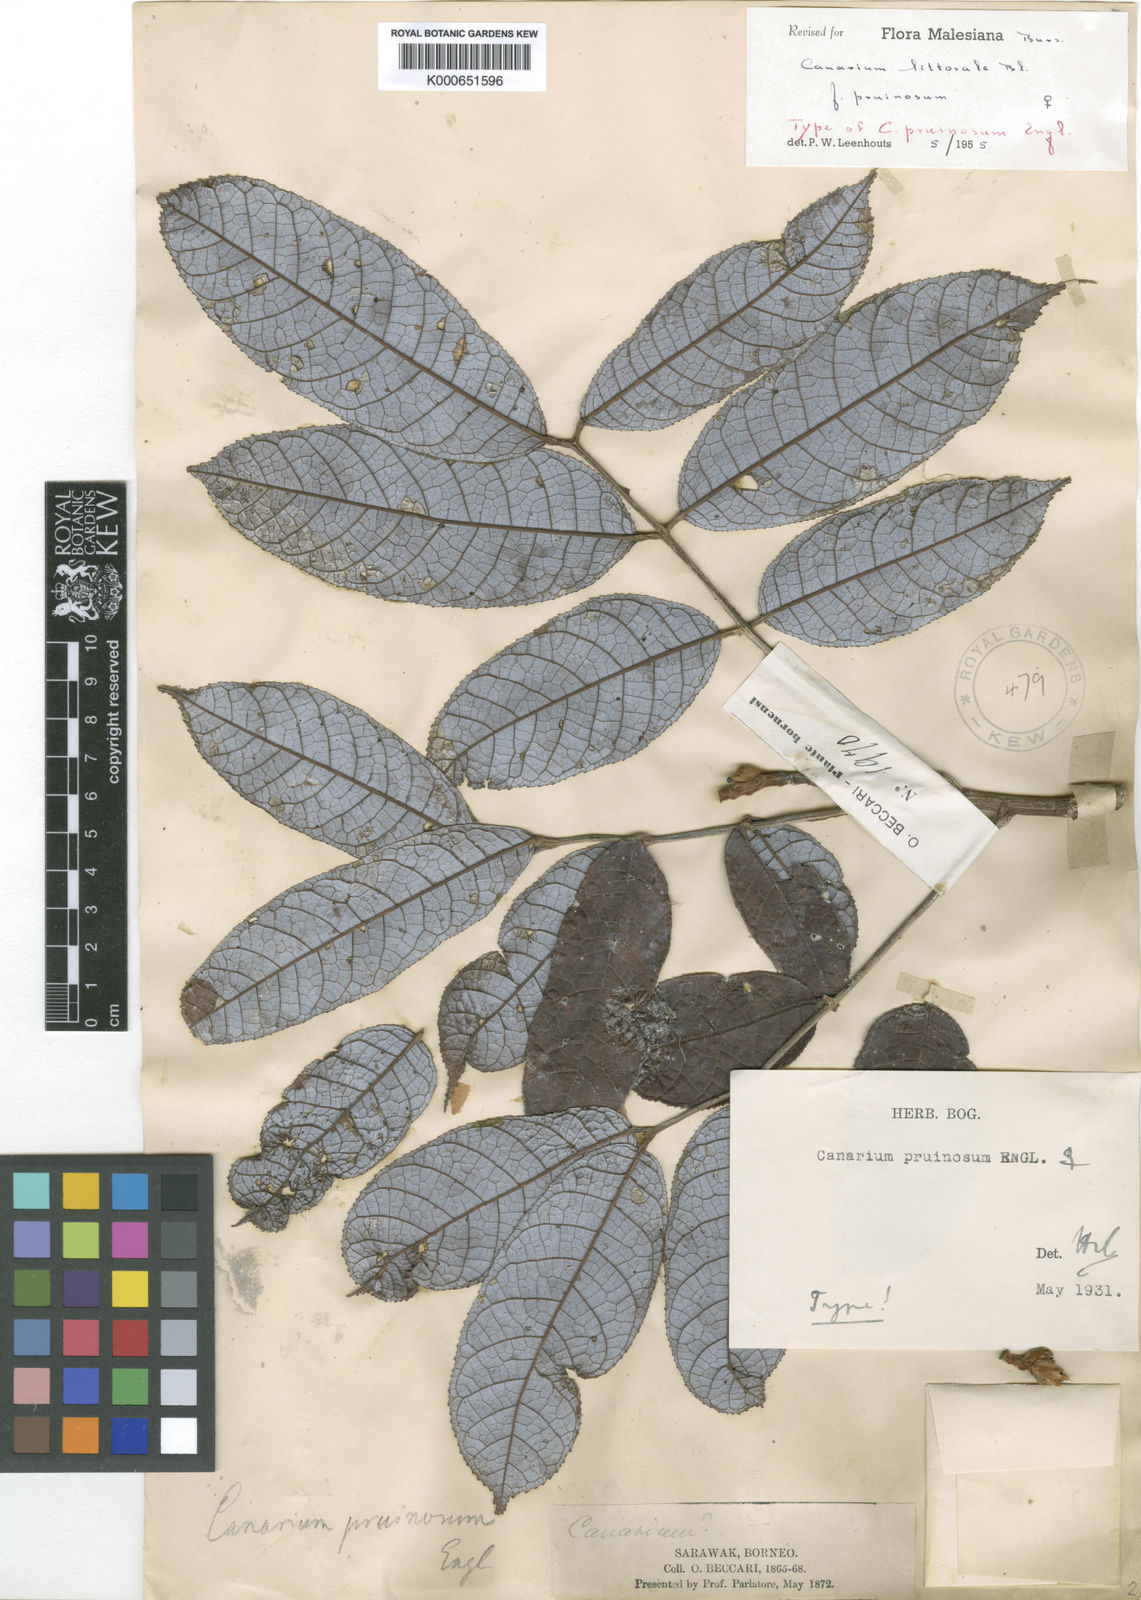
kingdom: Plantae
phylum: Tracheophyta
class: Magnoliopsida
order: Sapindales
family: Burseraceae
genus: Canarium
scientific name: Canarium littorale
